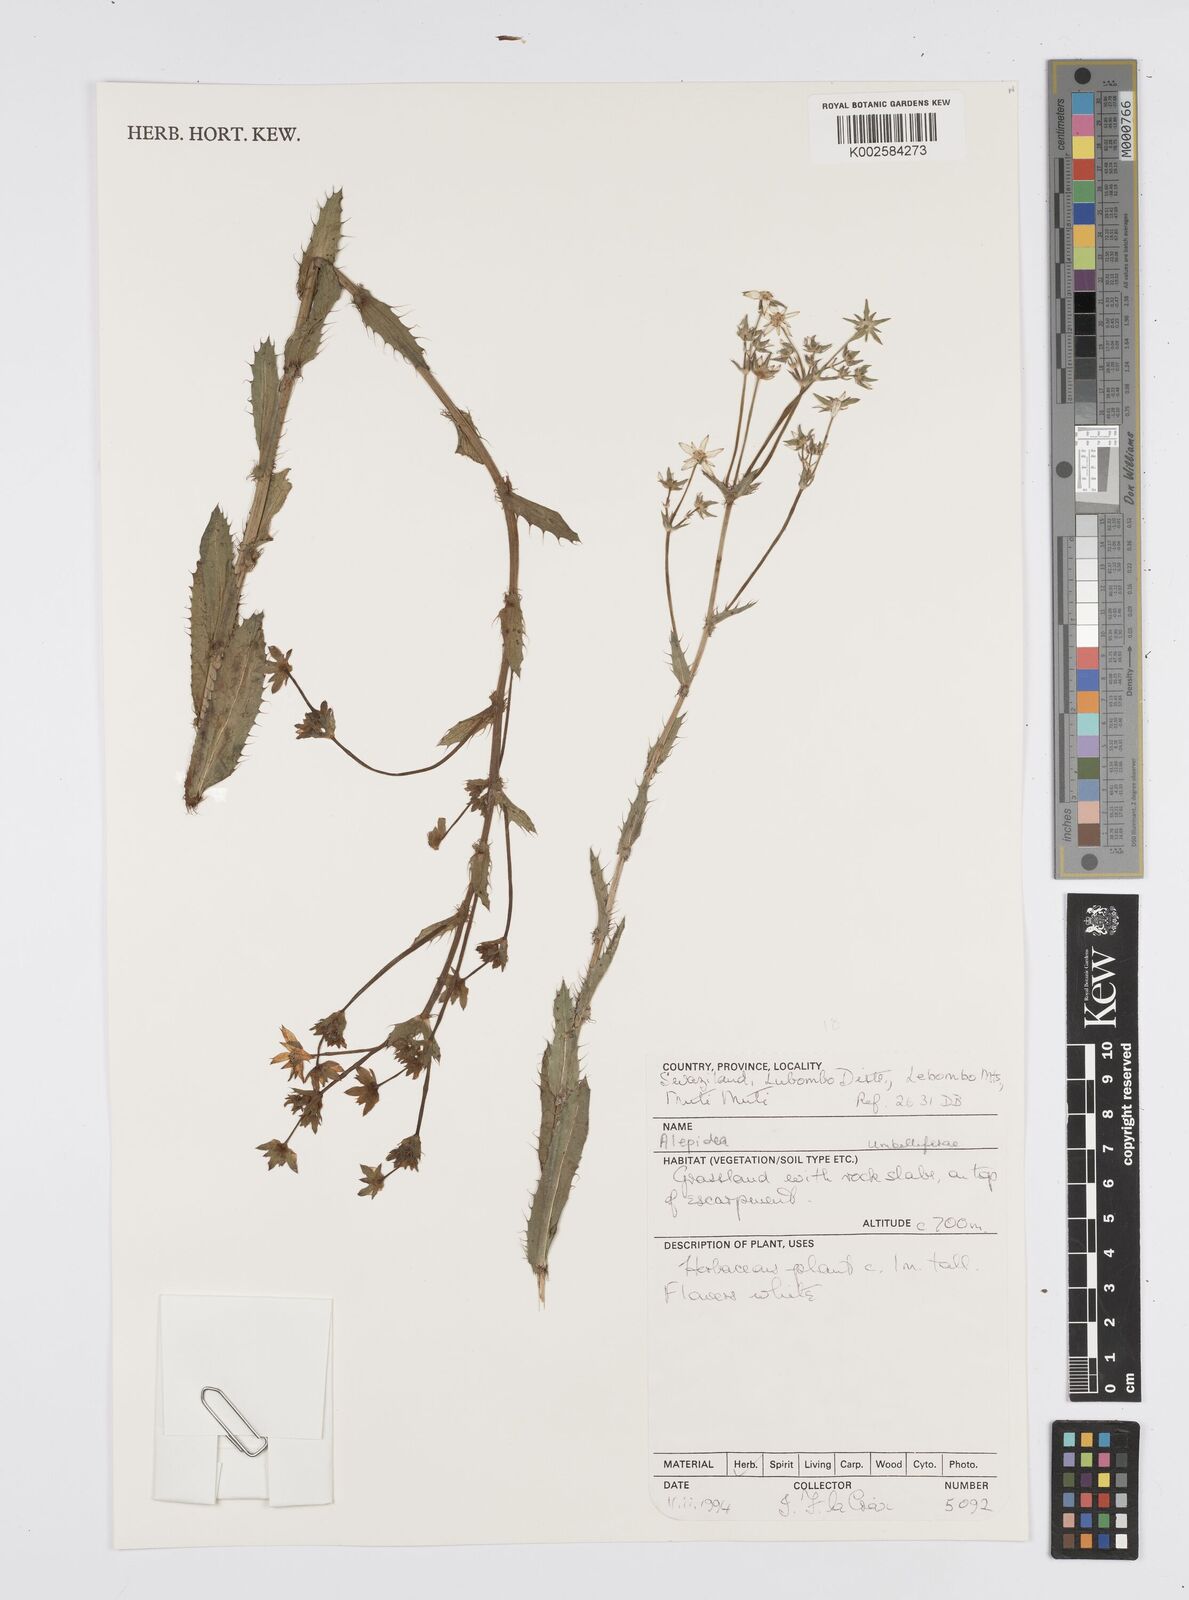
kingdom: Plantae
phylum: Tracheophyta
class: Magnoliopsida
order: Apiales
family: Apiaceae
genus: Alepidea
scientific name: Alepidea
